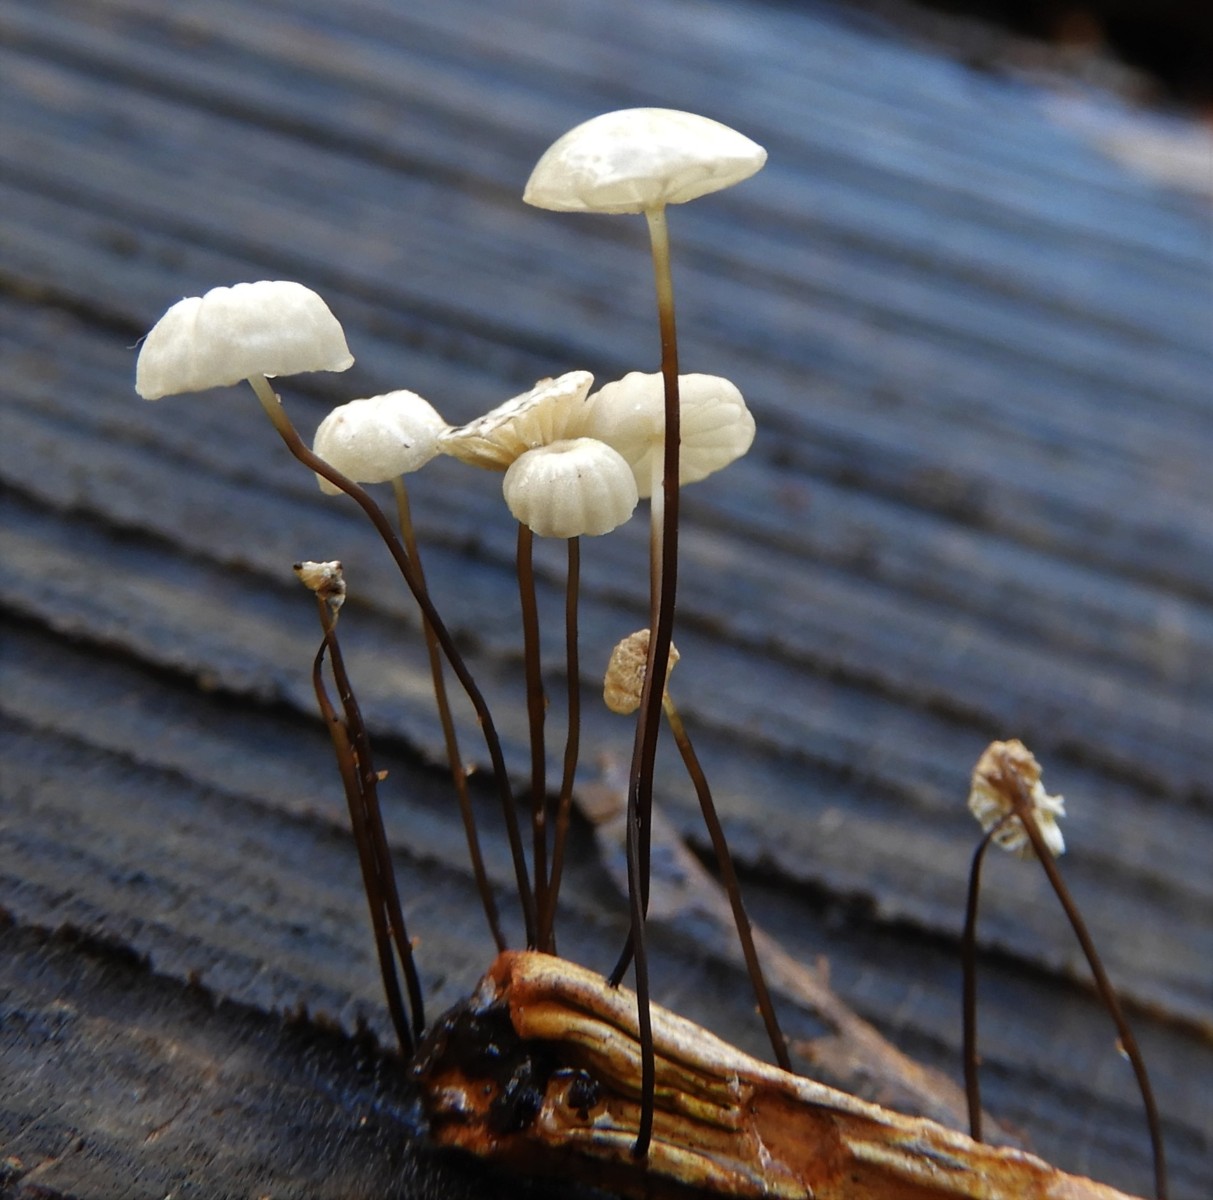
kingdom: Fungi
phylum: Basidiomycota
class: Agaricomycetes
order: Agaricales
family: Marasmiaceae
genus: Marasmius
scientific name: Marasmius rotula
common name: hjul-bruskhat
